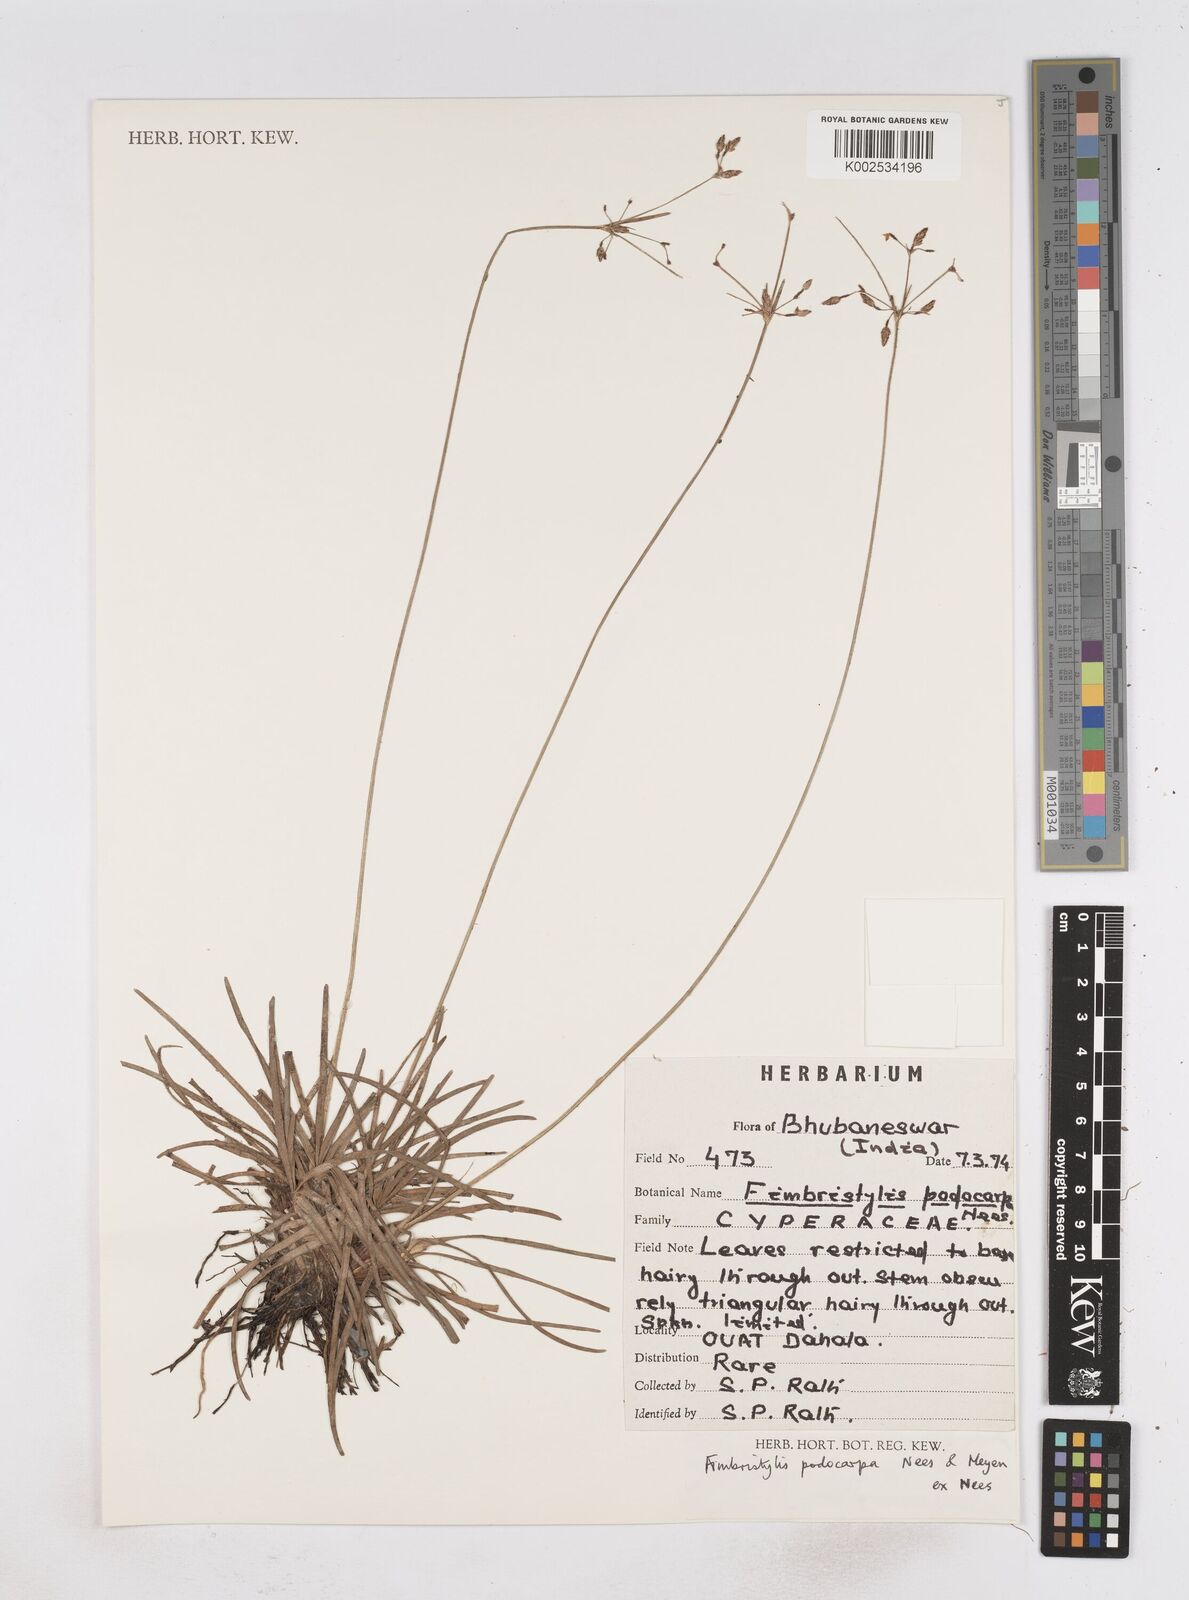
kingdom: Plantae
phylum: Tracheophyta
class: Liliopsida
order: Poales
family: Cyperaceae
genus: Fimbristylis
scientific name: Fimbristylis dichotoma
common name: Forked fimbry
